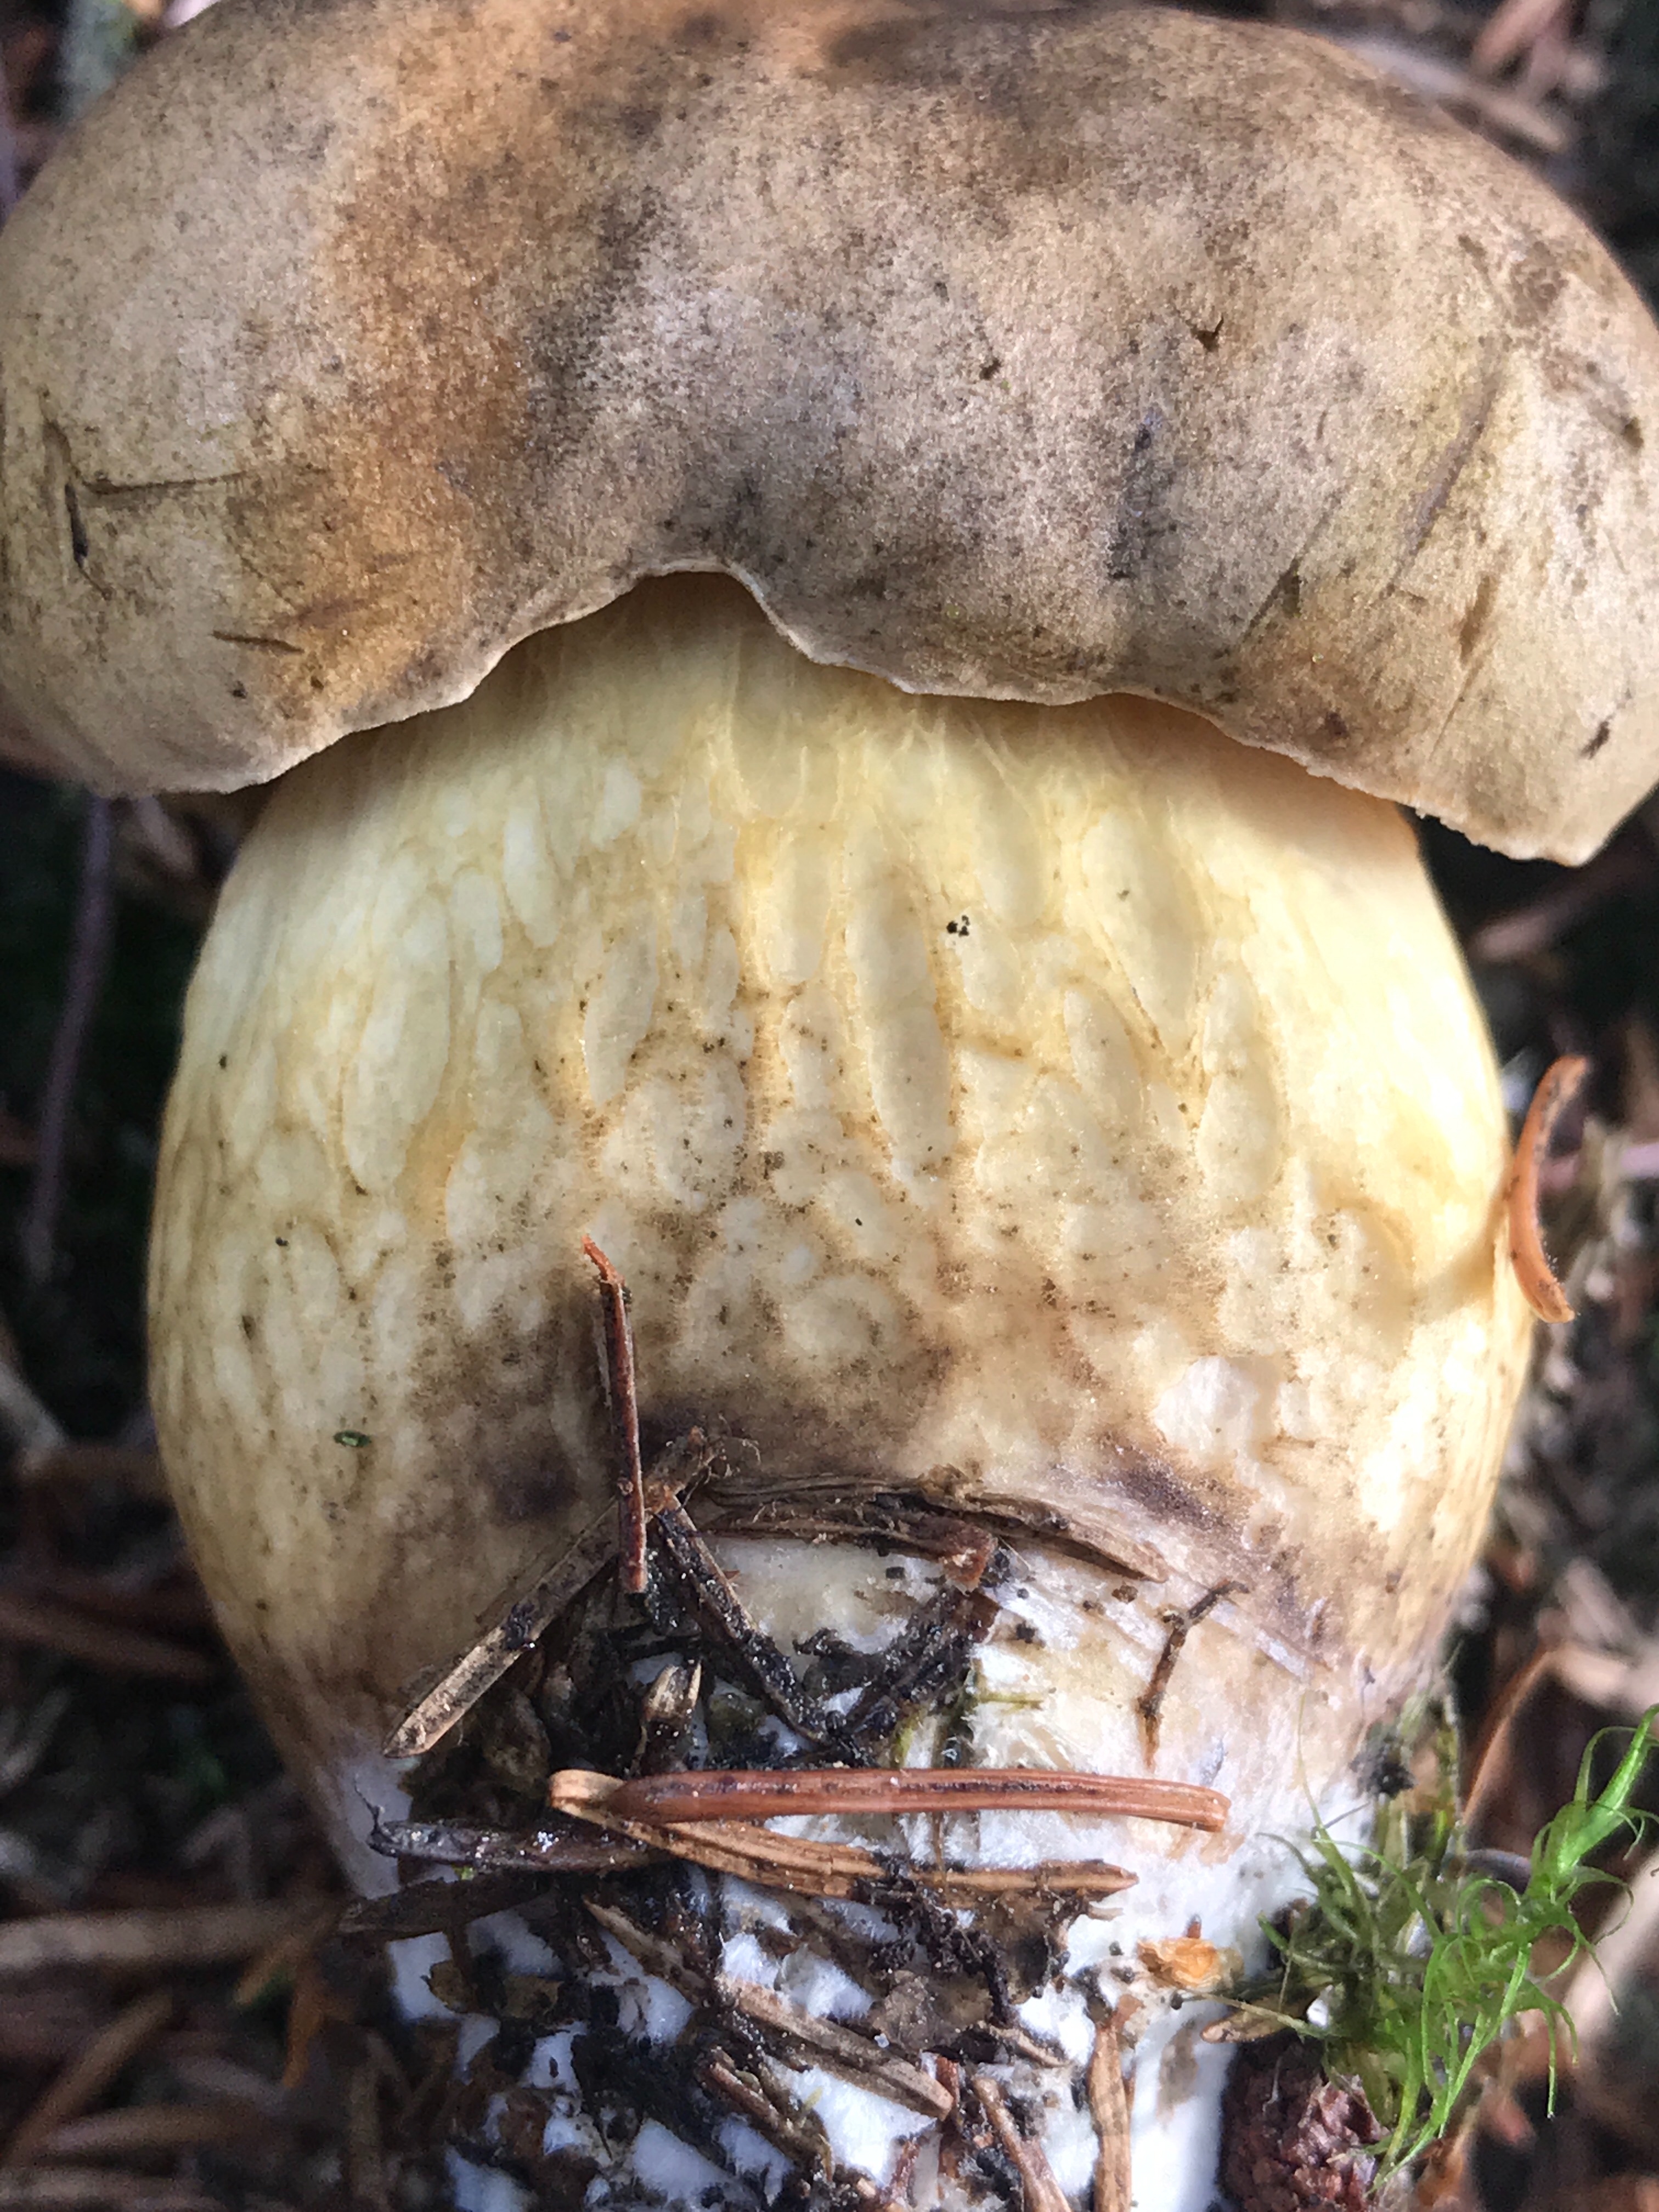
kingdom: Fungi
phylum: Basidiomycota
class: Agaricomycetes
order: Boletales
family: Boletaceae
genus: Tylopilus
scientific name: Tylopilus felleus
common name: galderørhat
